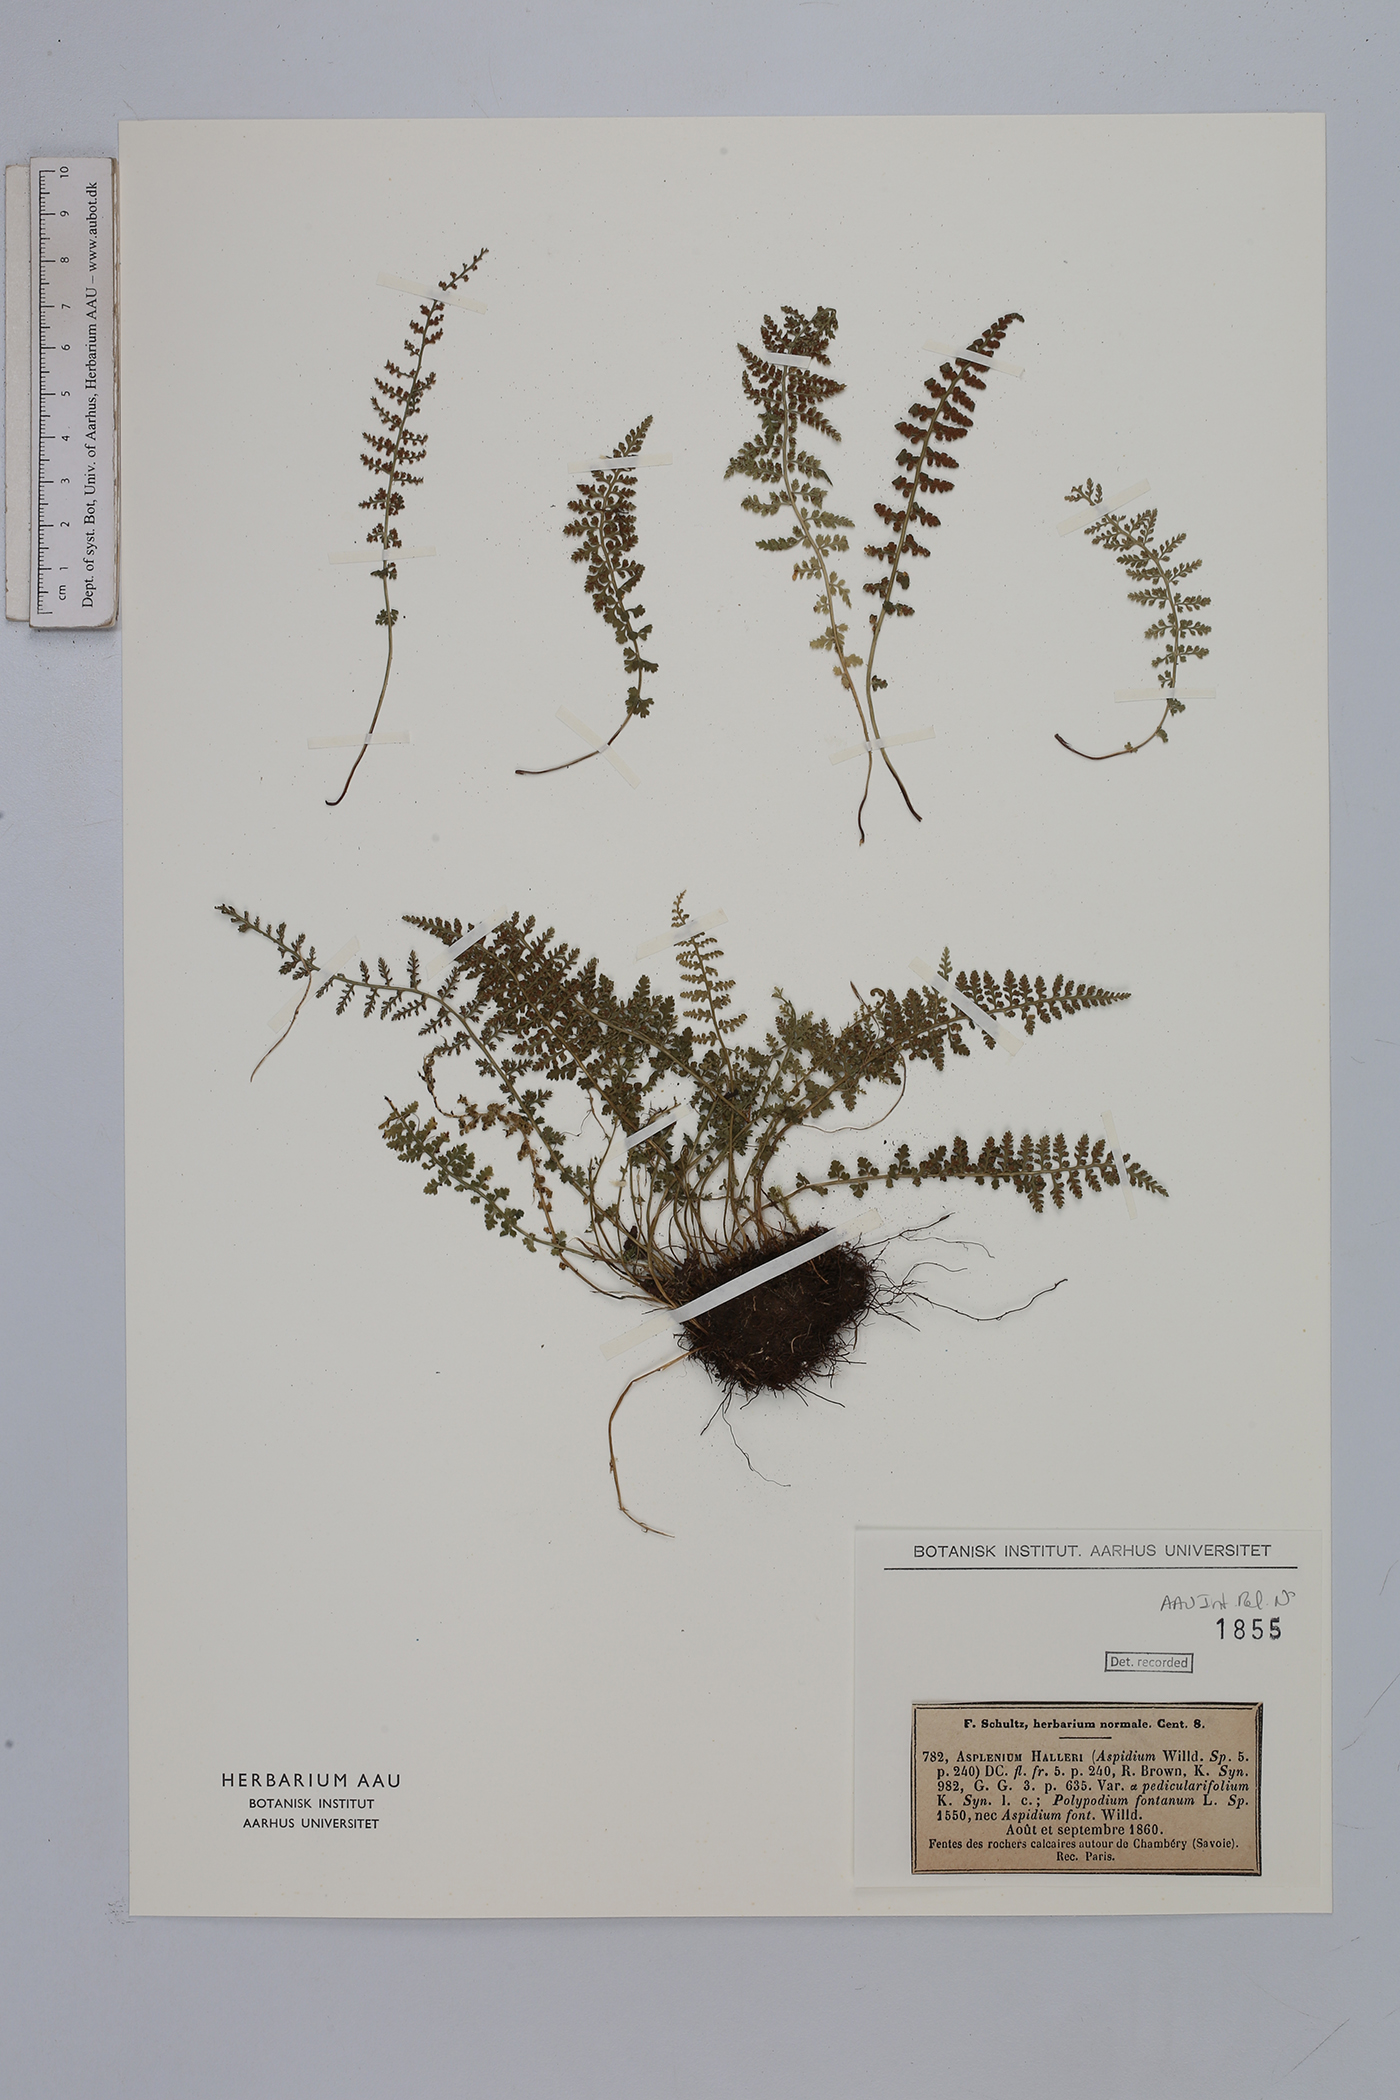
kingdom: Plantae
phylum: Tracheophyta
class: Polypodiopsida
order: Polypodiales
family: Aspleniaceae
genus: Asplenium
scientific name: Asplenium fontanum
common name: Fountain spleenwort
